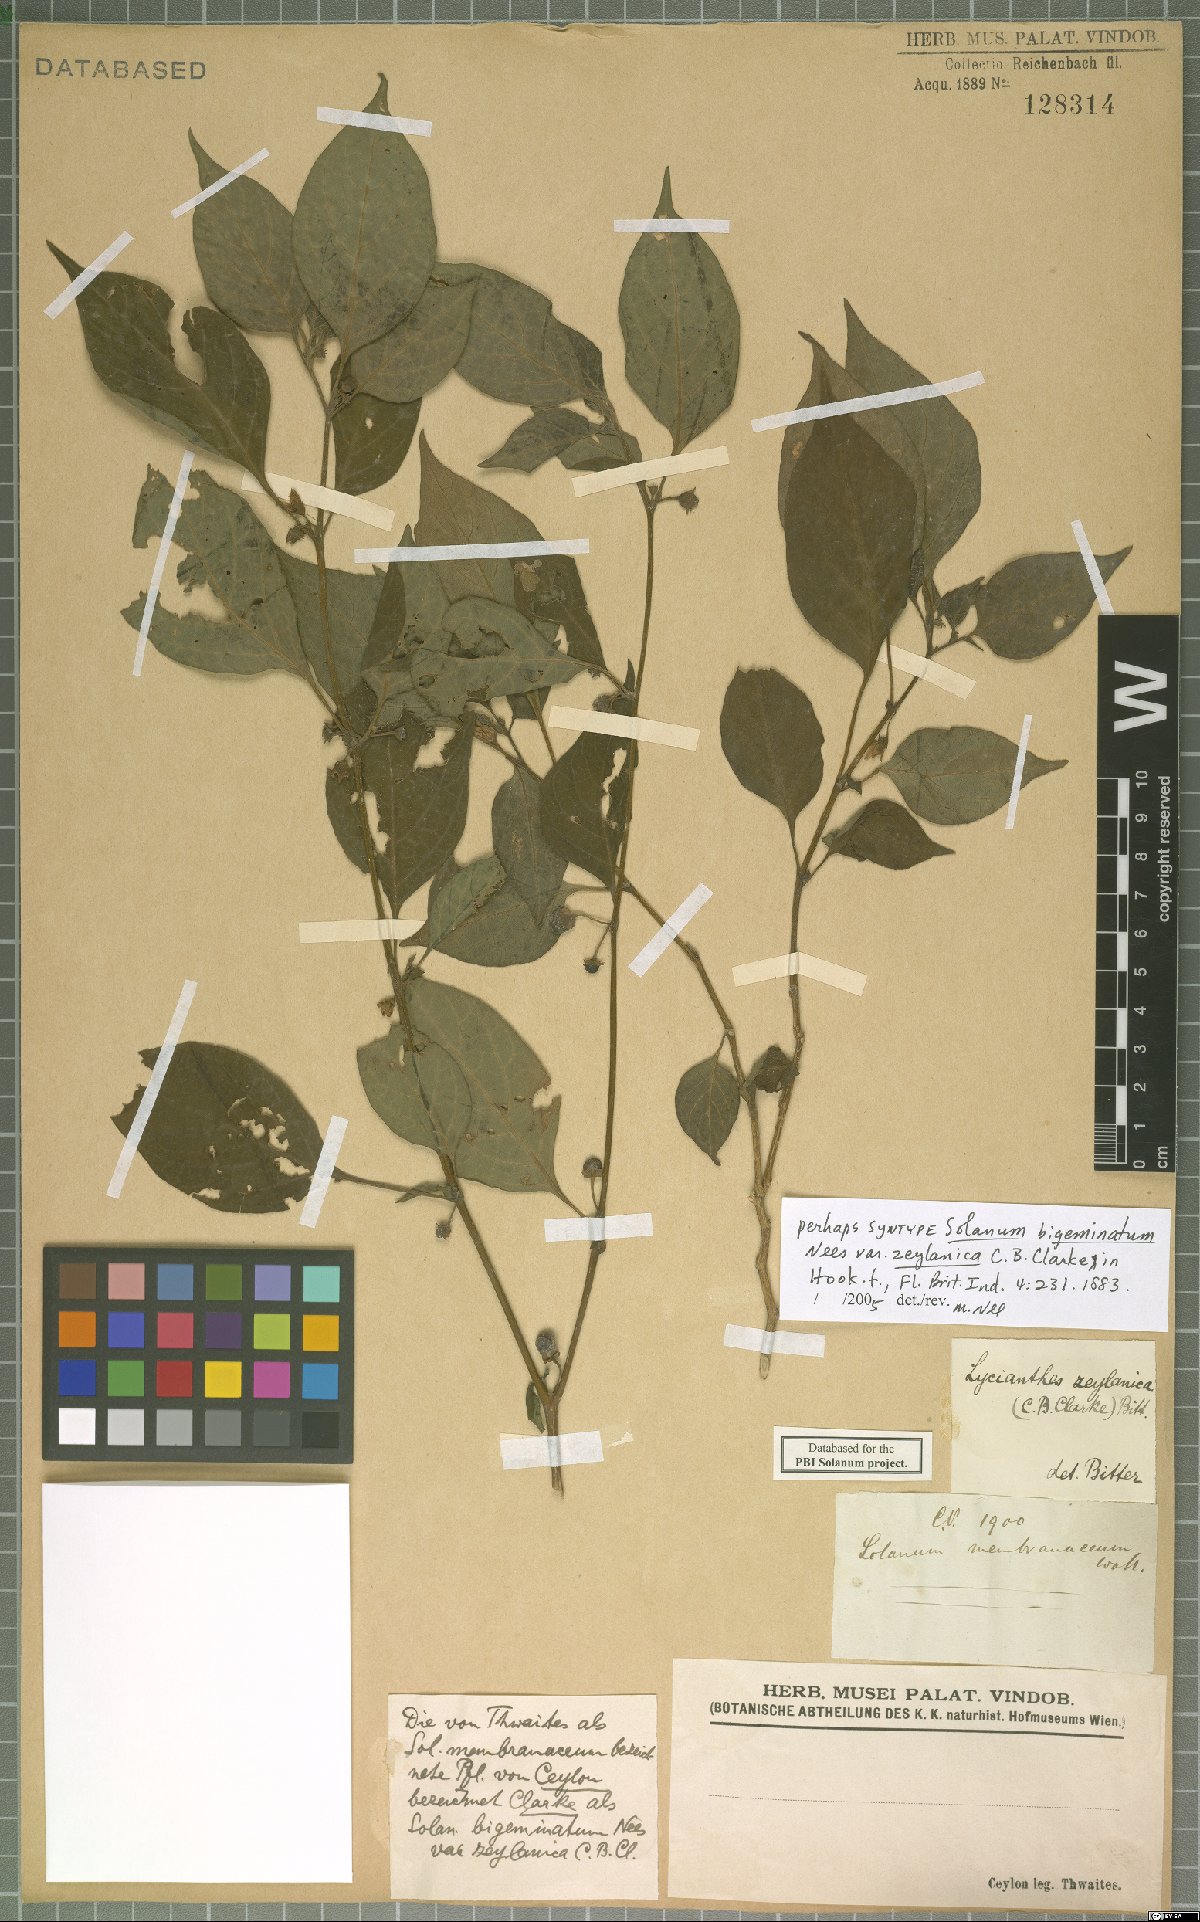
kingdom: Plantae
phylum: Tracheophyta
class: Magnoliopsida
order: Solanales
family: Solanaceae
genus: Lycianthes
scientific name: Lycianthes laevis
